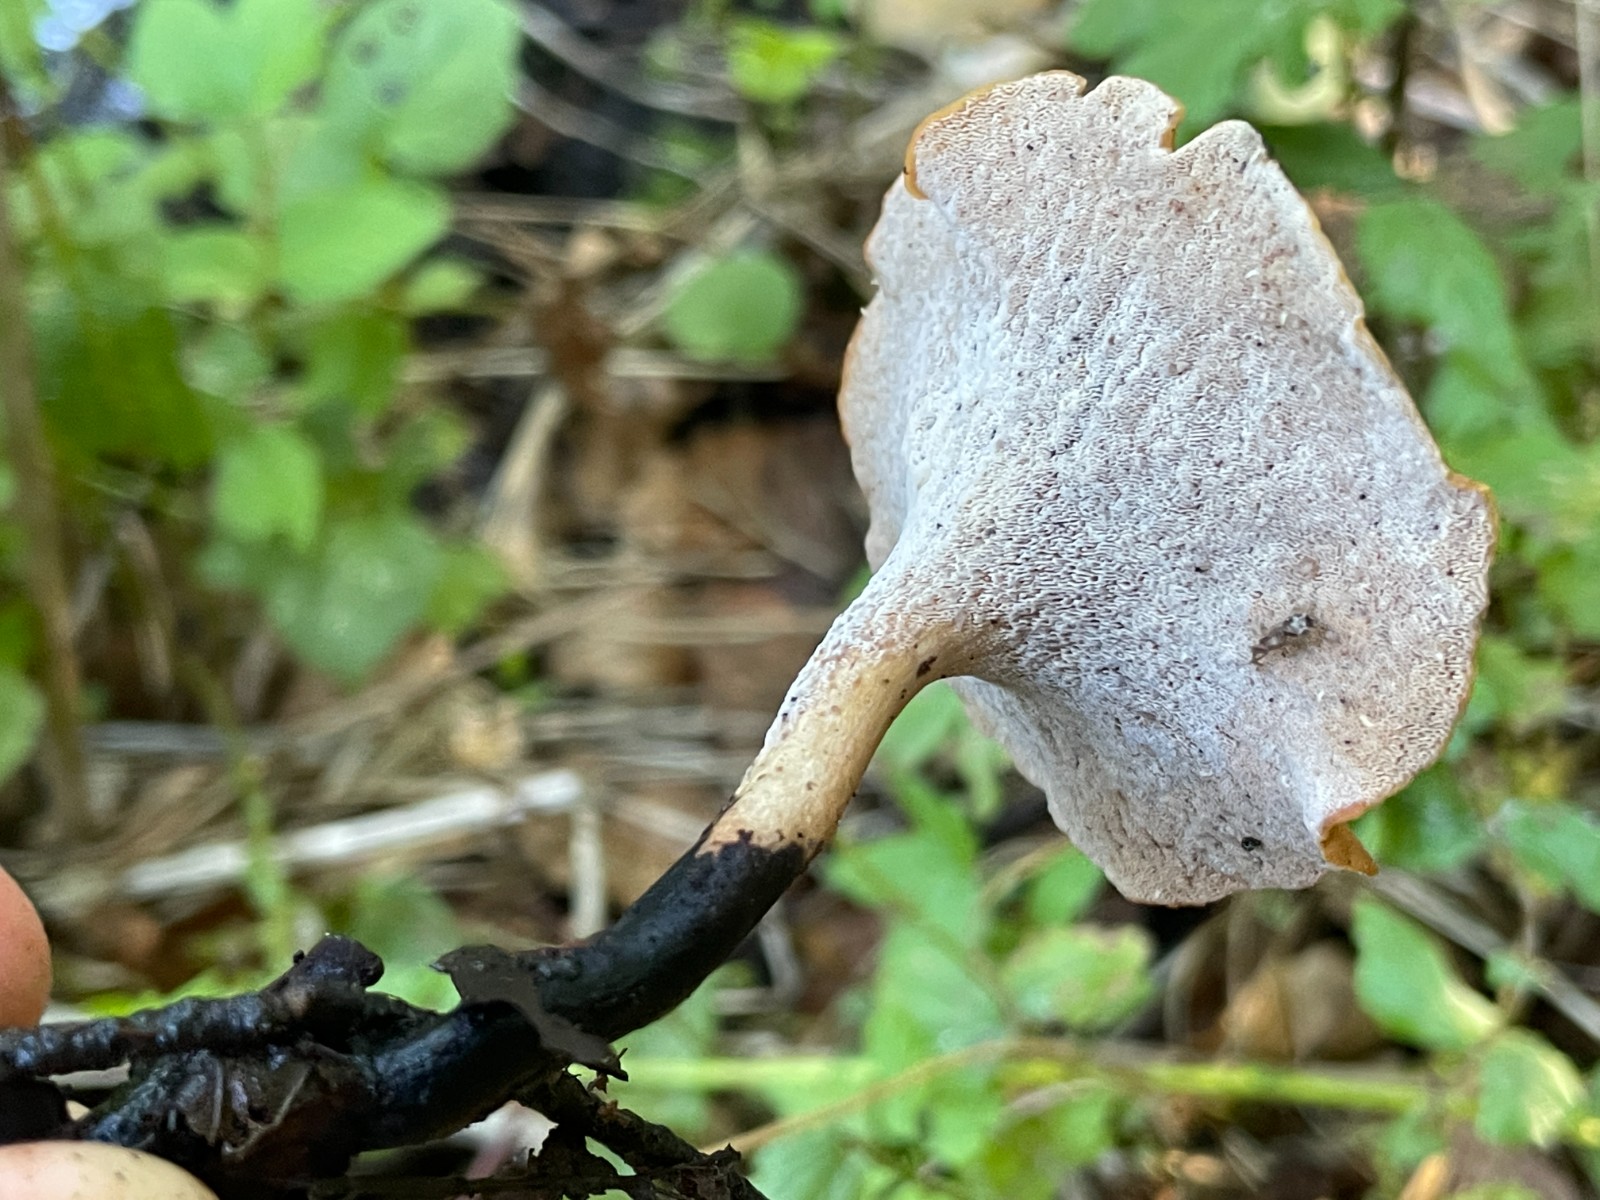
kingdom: Fungi
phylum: Basidiomycota
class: Agaricomycetes
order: Polyporales
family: Polyporaceae
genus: Cerioporus
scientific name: Cerioporus varius
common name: foranderlig stilkporesvamp
